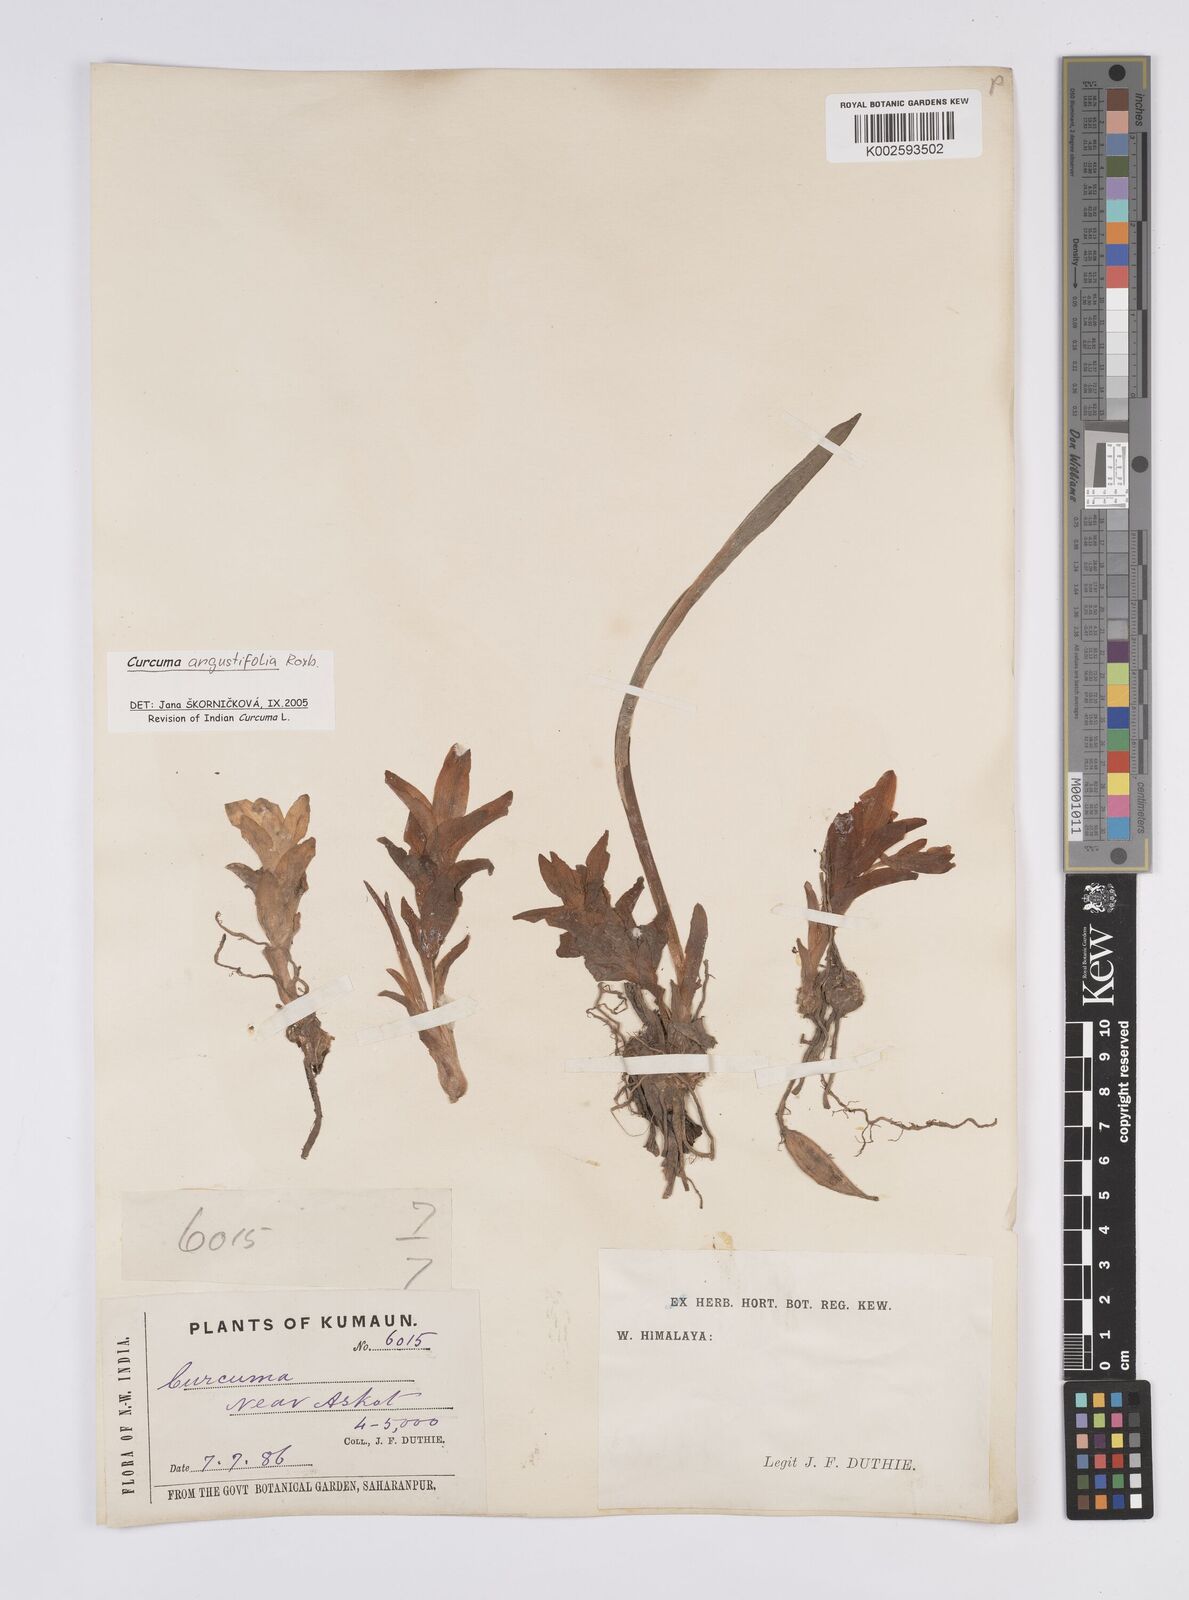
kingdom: Plantae
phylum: Tracheophyta
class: Liliopsida
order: Zingiberales
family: Zingiberaceae
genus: Curcuma
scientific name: Curcuma angustifolia
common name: East indian arrowroot
